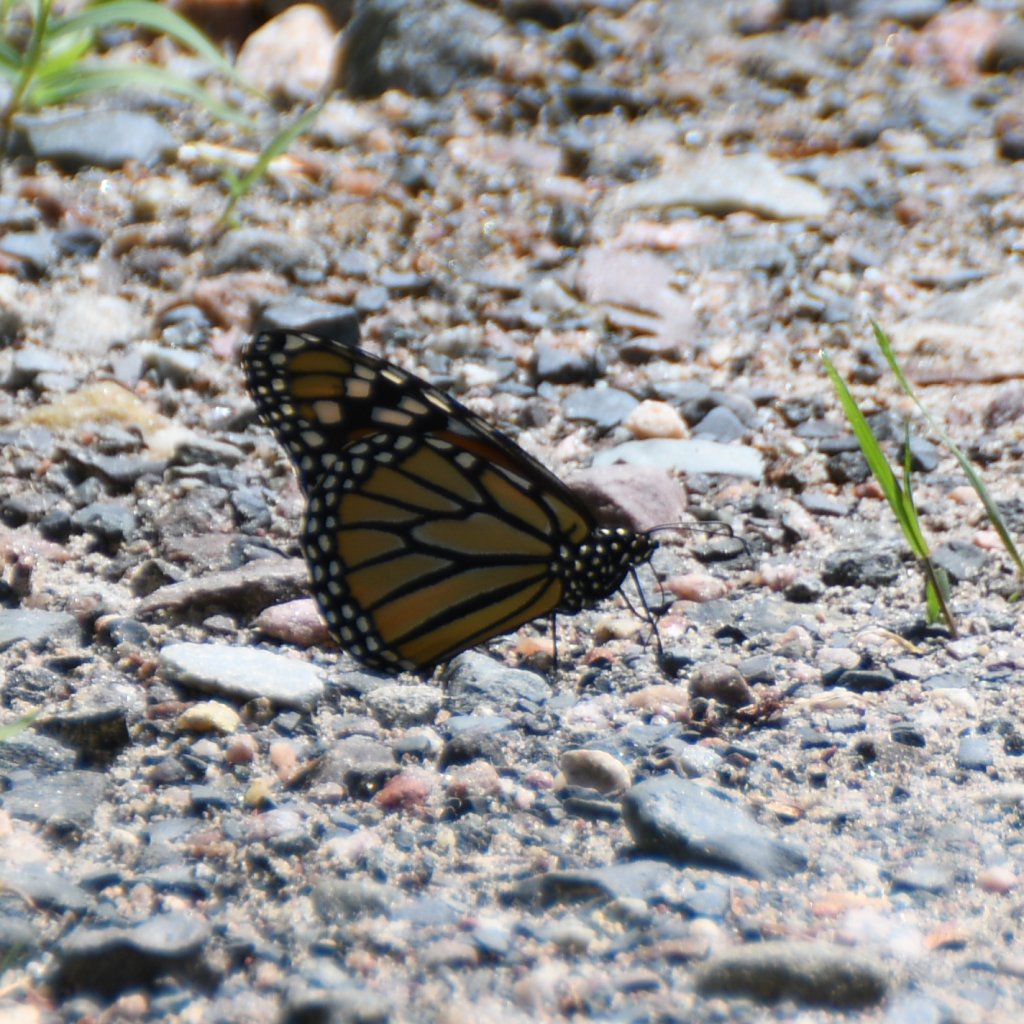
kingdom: Animalia
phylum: Arthropoda
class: Insecta
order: Lepidoptera
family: Nymphalidae
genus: Danaus
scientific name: Danaus plexippus
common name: Monarch
